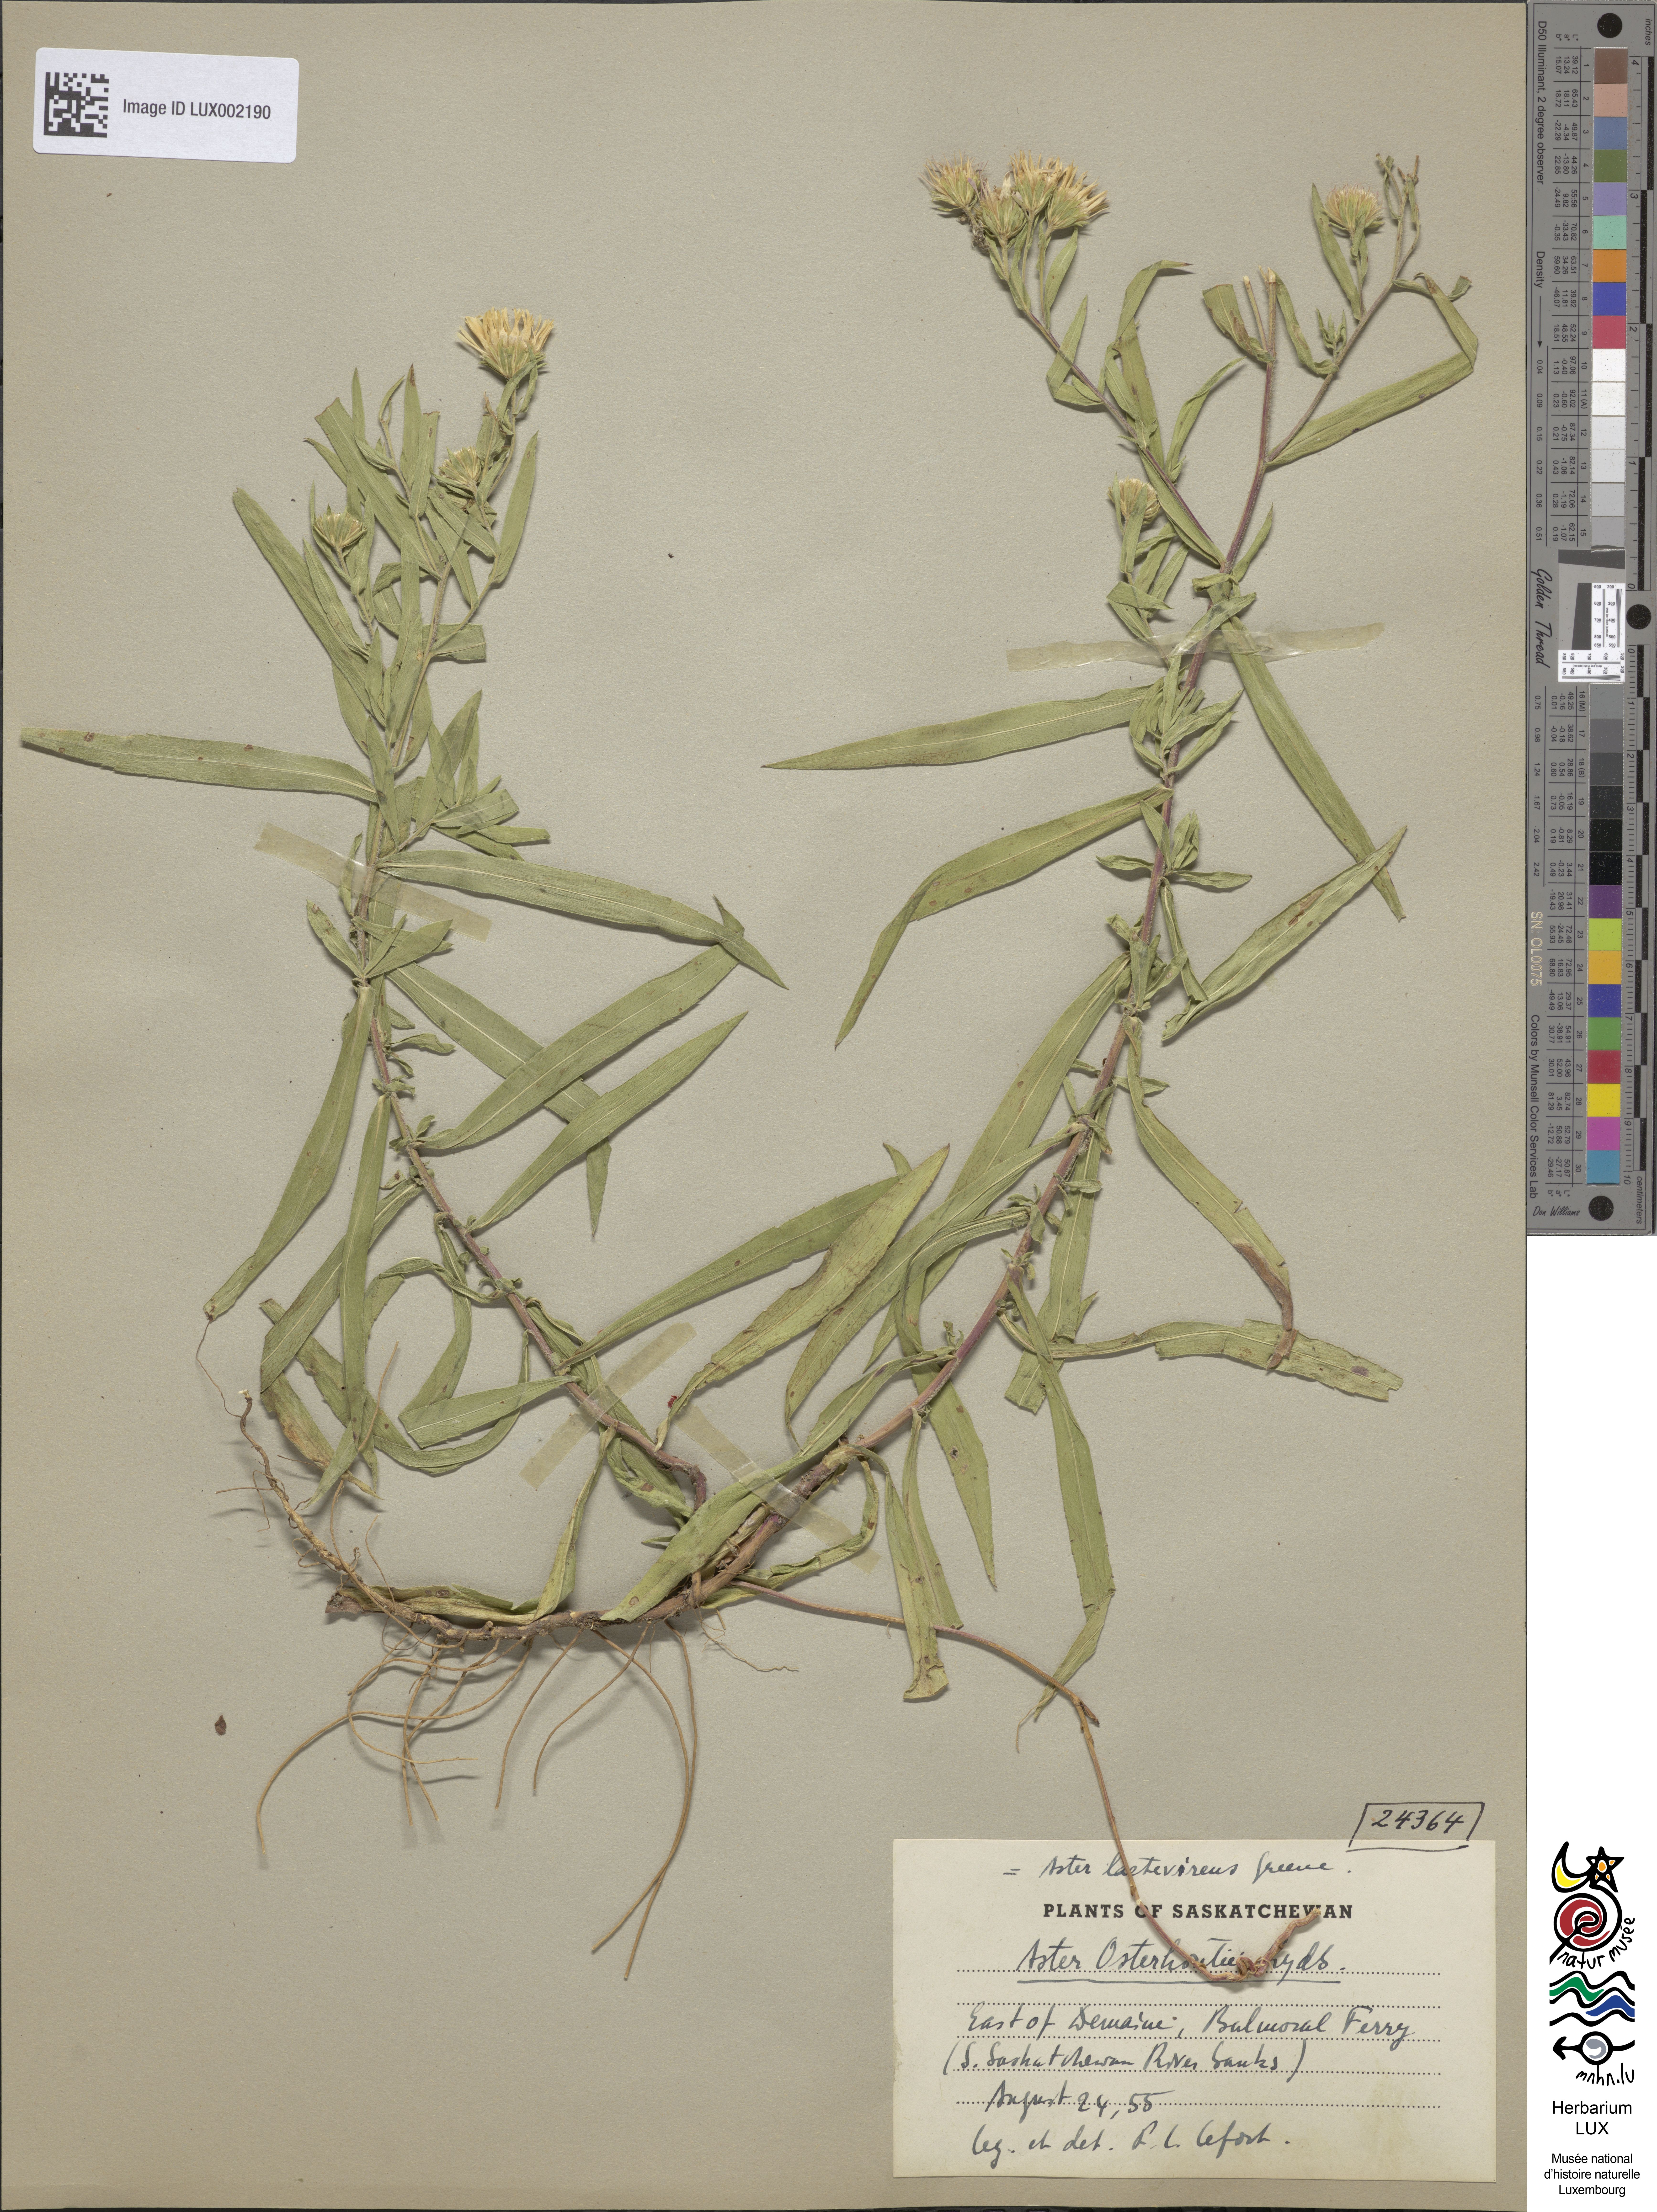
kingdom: Plantae
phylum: Tracheophyta
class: Magnoliopsida
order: Asterales
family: Asteraceae
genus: Symphyotrichum
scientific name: Symphyotrichum lanceolatum
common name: Panicled aster
